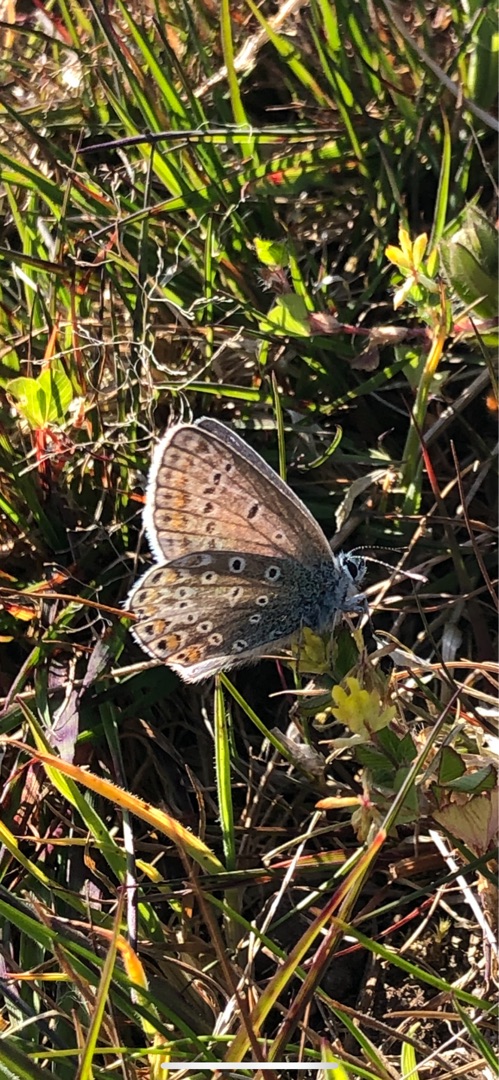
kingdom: Animalia
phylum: Arthropoda
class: Insecta
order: Lepidoptera
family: Lycaenidae
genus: Polyommatus
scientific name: Polyommatus icarus
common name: Almindelig blåfugl
